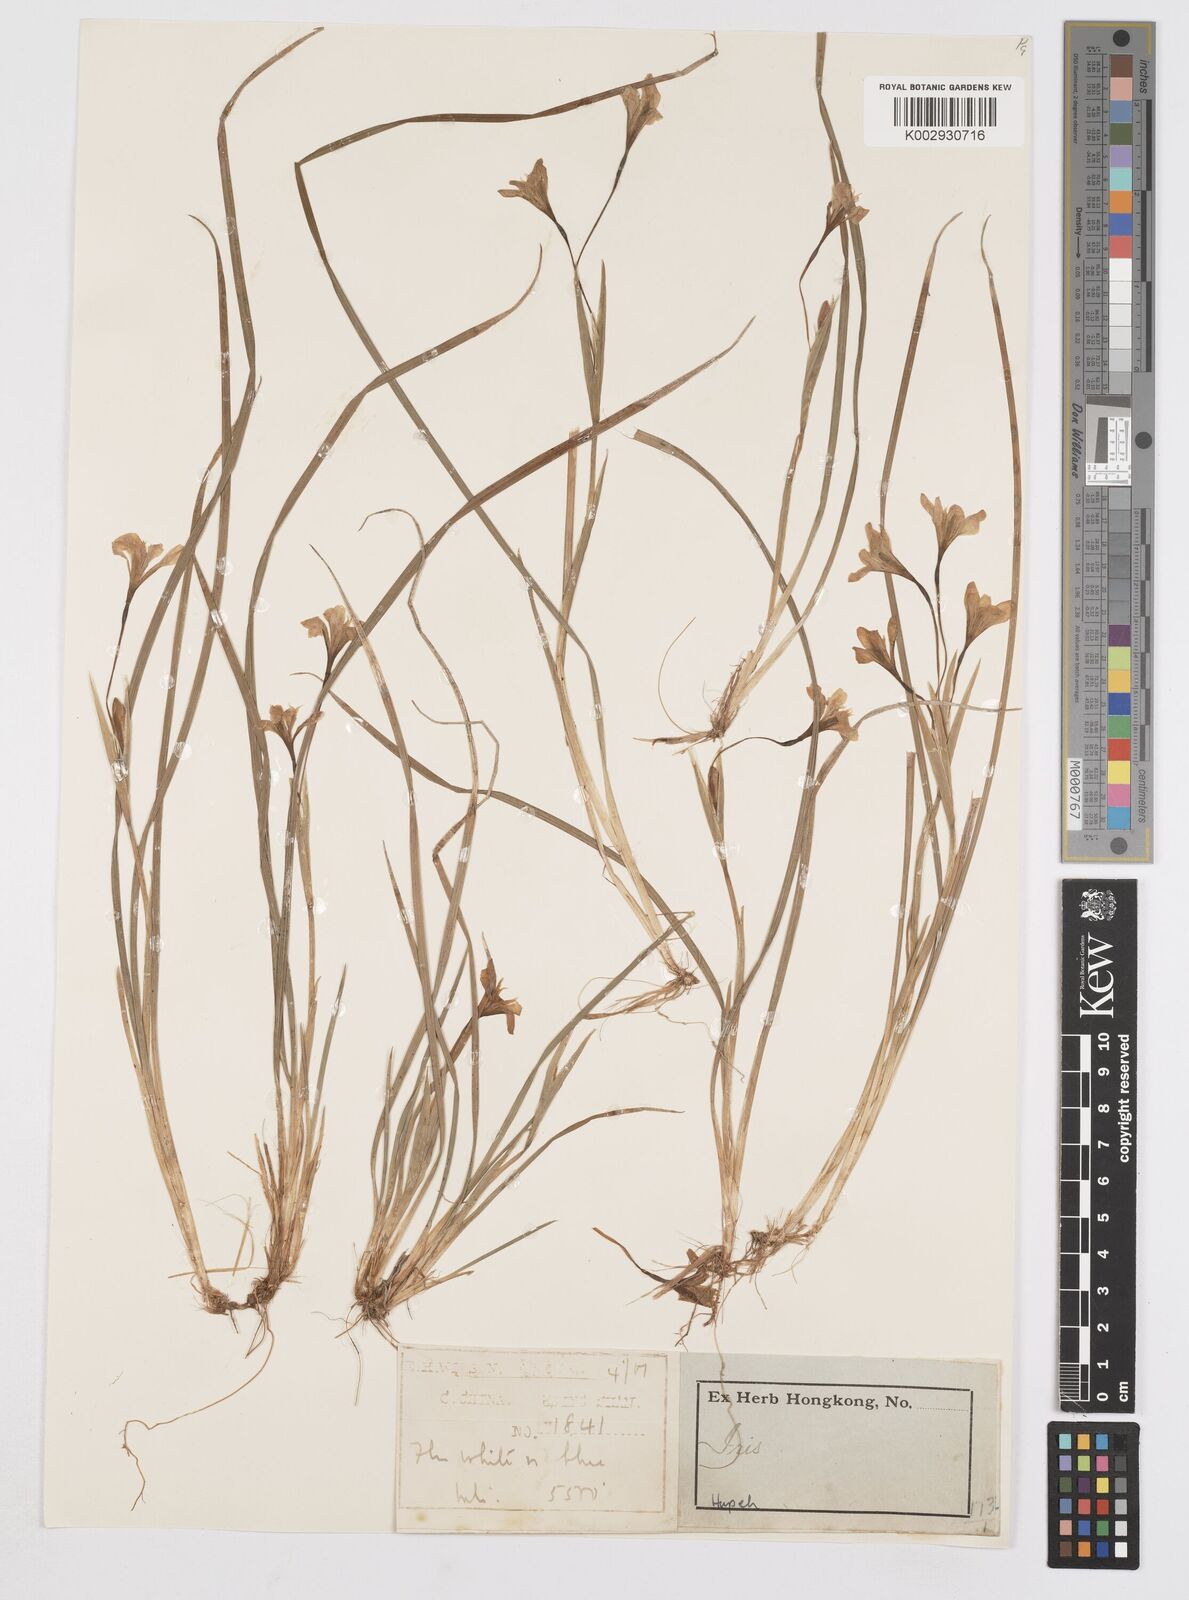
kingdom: Plantae
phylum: Tracheophyta
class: Liliopsida
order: Asparagales
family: Iridaceae
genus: Iris
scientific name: Iris henryi
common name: Long-pedicel iris
